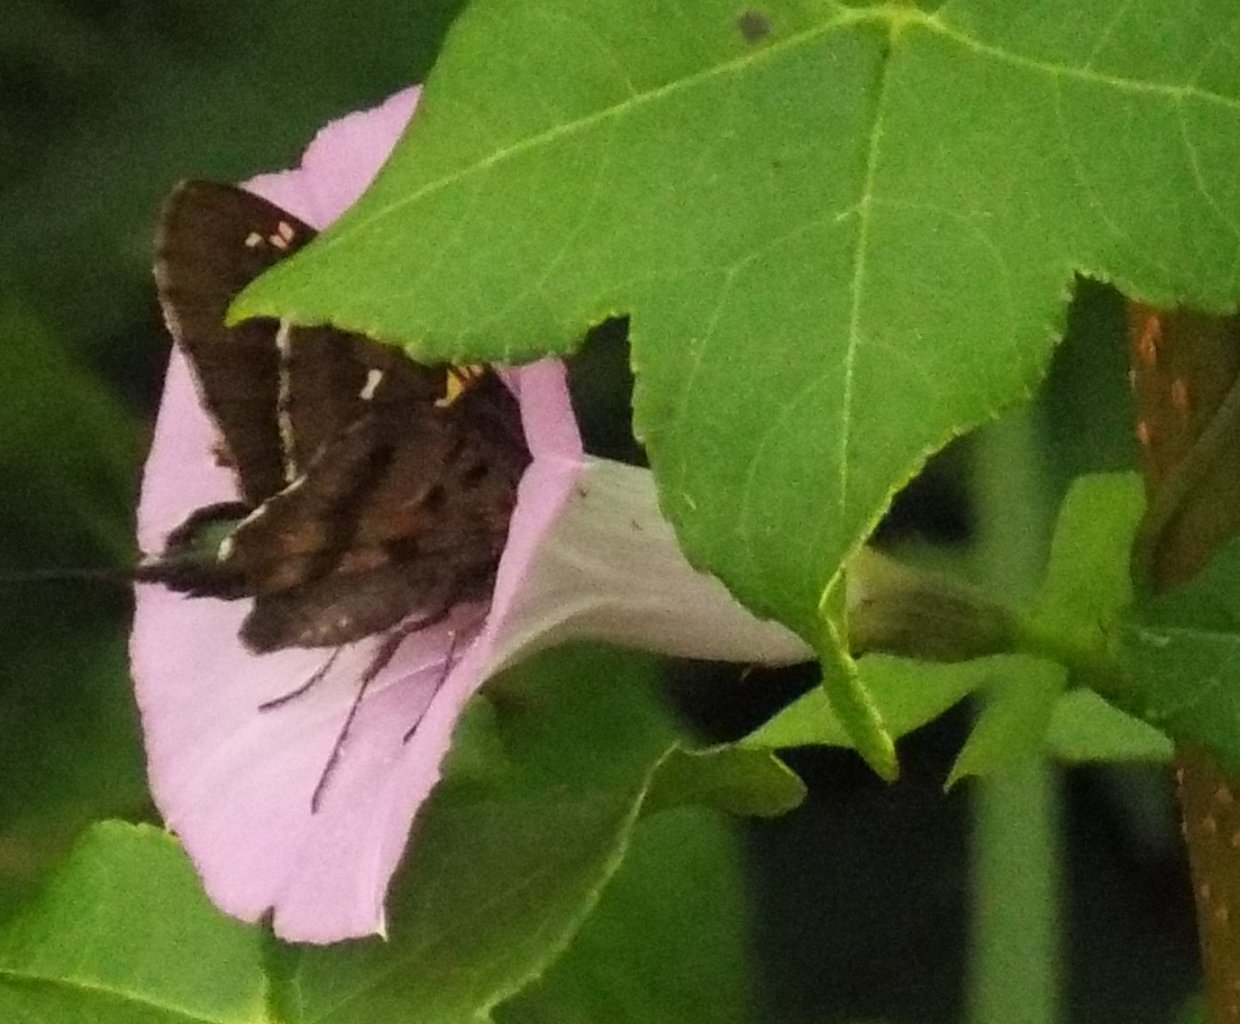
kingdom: Animalia
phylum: Arthropoda
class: Insecta
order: Lepidoptera
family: Hesperiidae
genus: Urbanus
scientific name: Urbanus proteus
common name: Long-tailed Skipper
